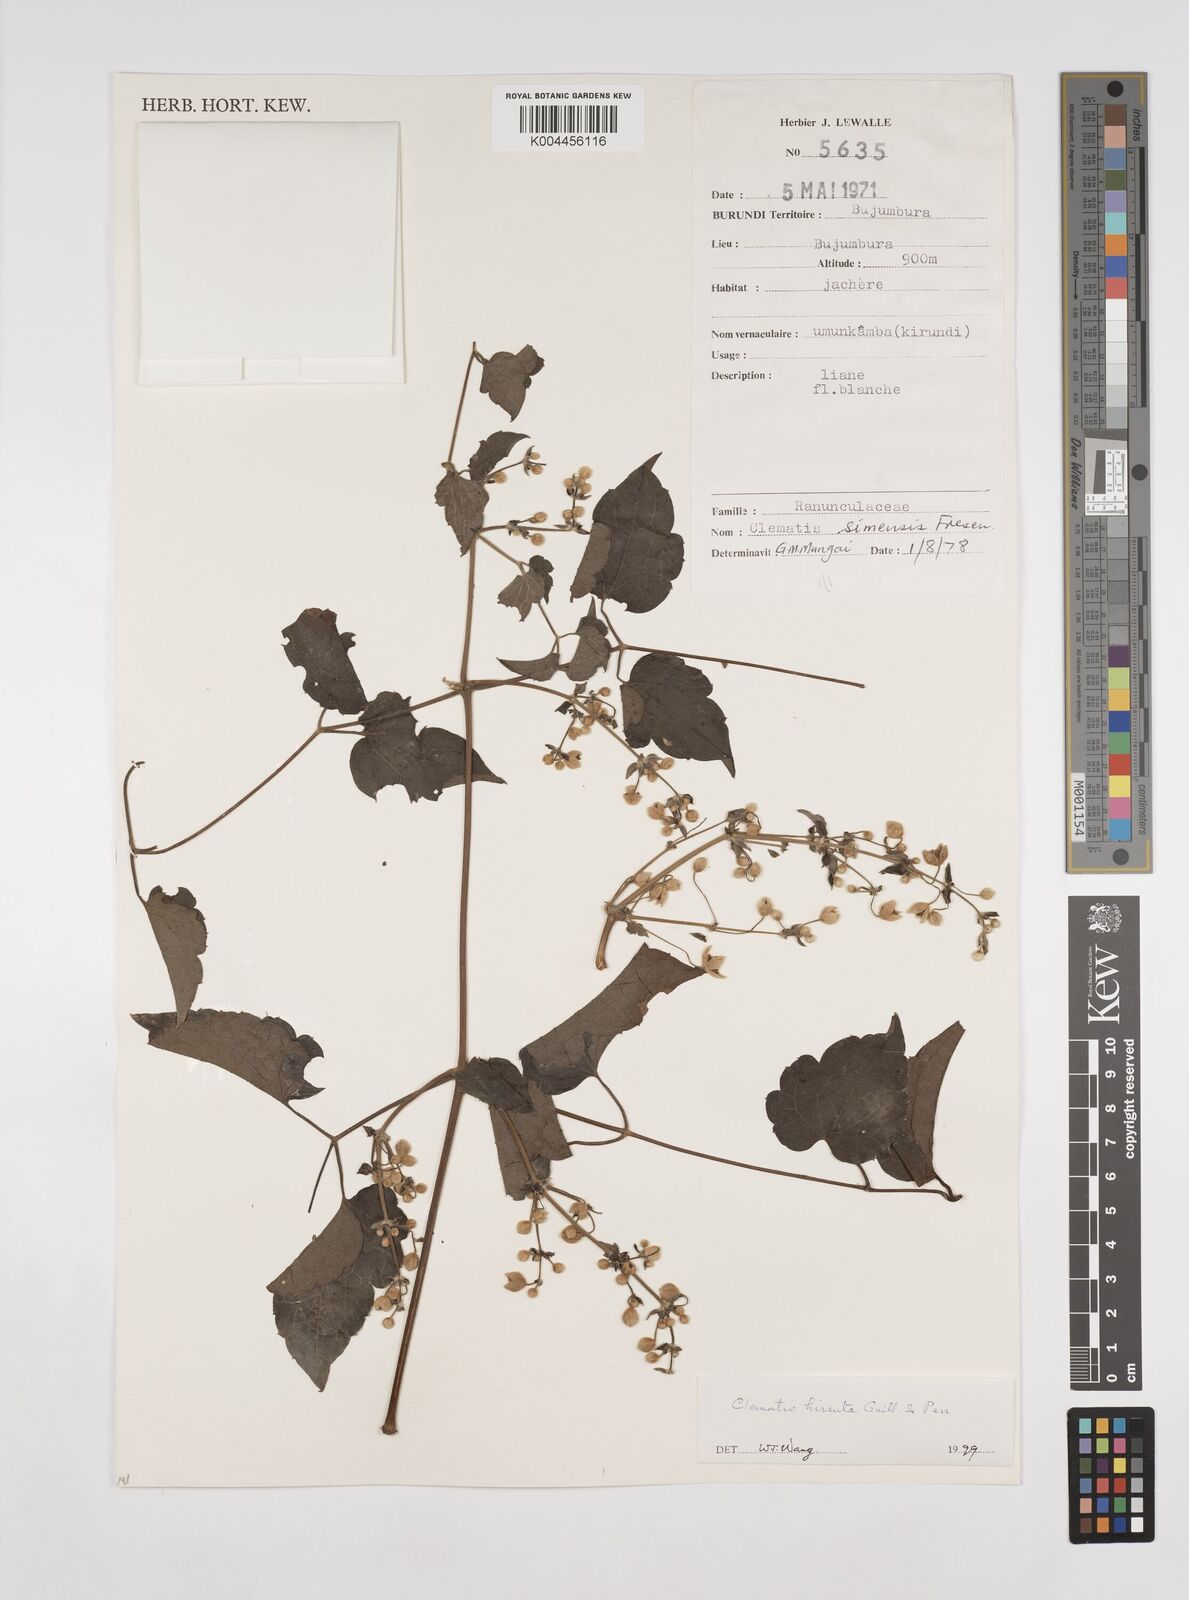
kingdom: Plantae
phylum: Tracheophyta
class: Magnoliopsida
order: Ranunculales
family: Ranunculaceae
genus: Clematis
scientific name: Clematis simensis
